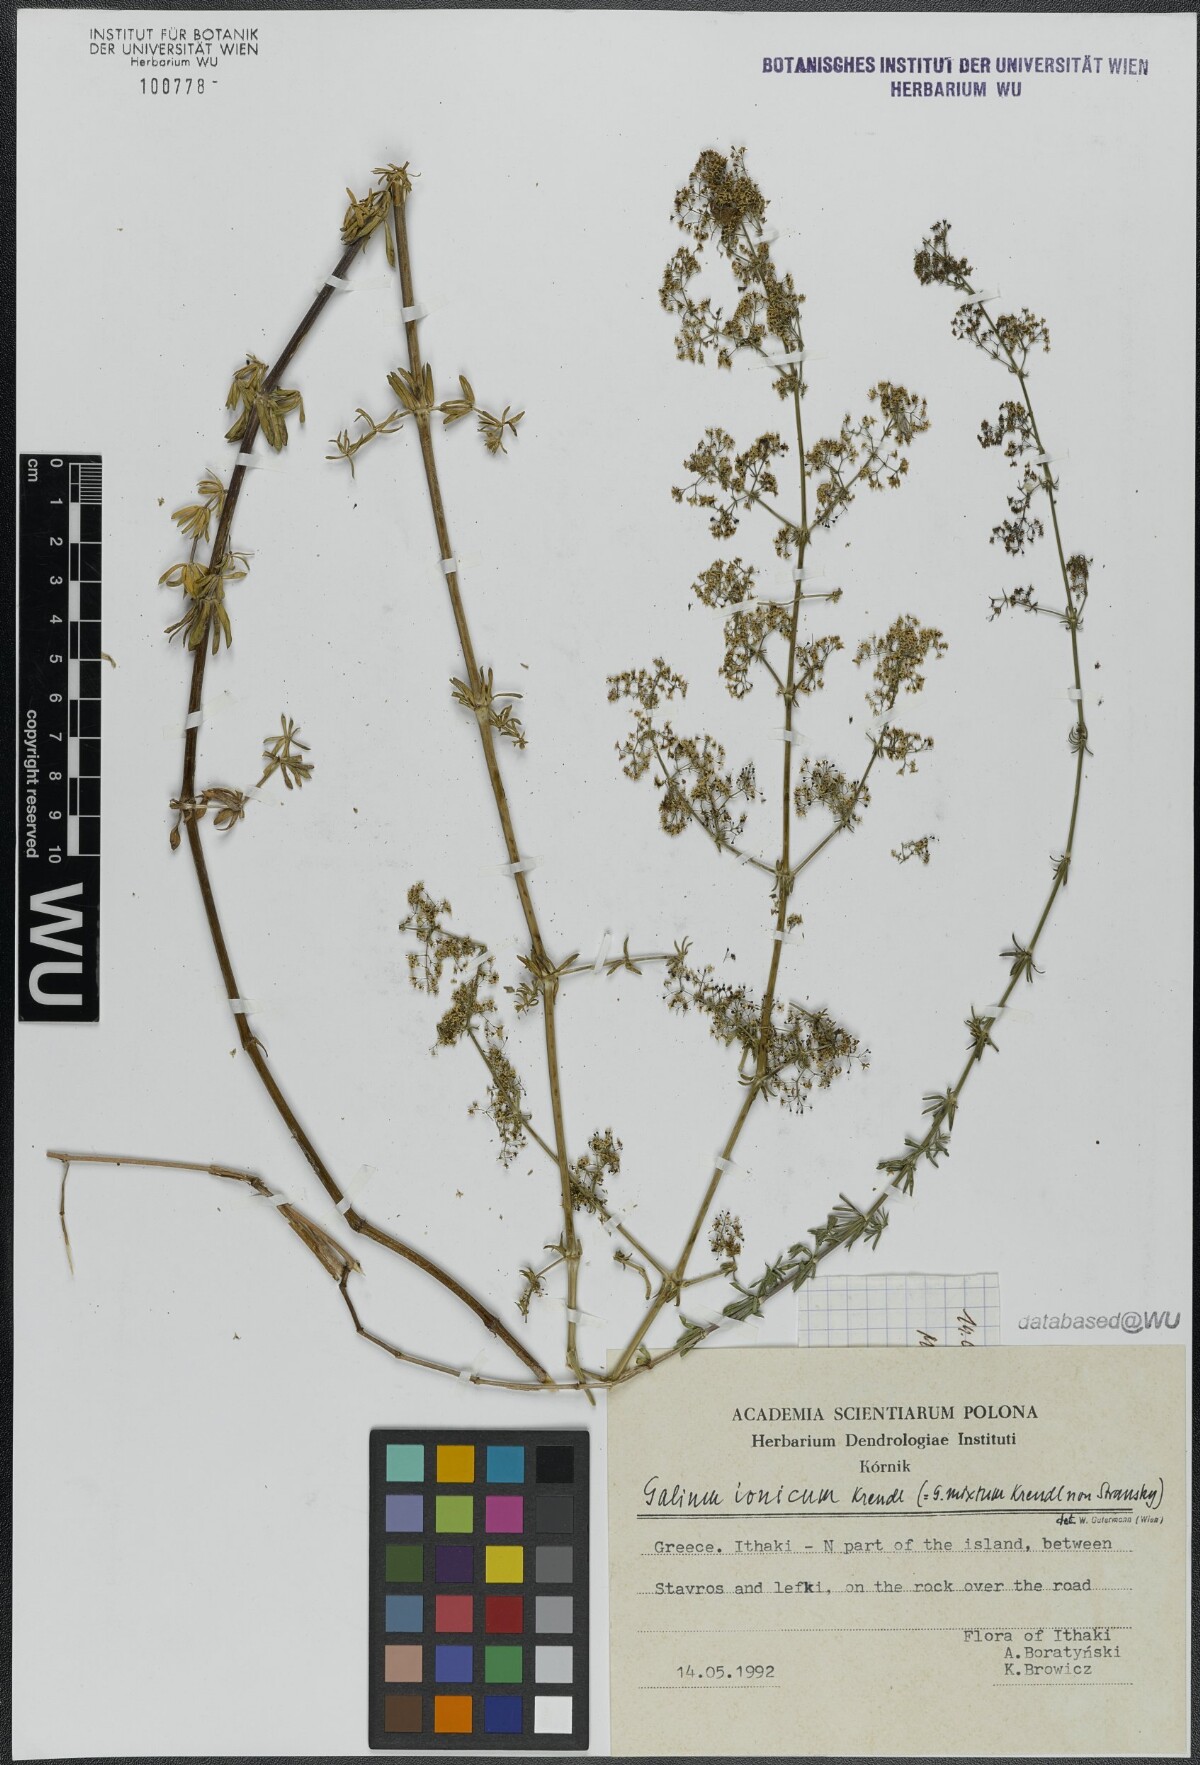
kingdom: Plantae
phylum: Tracheophyta
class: Magnoliopsida
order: Gentianales
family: Rubiaceae
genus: Galium
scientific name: Galium ionicum
